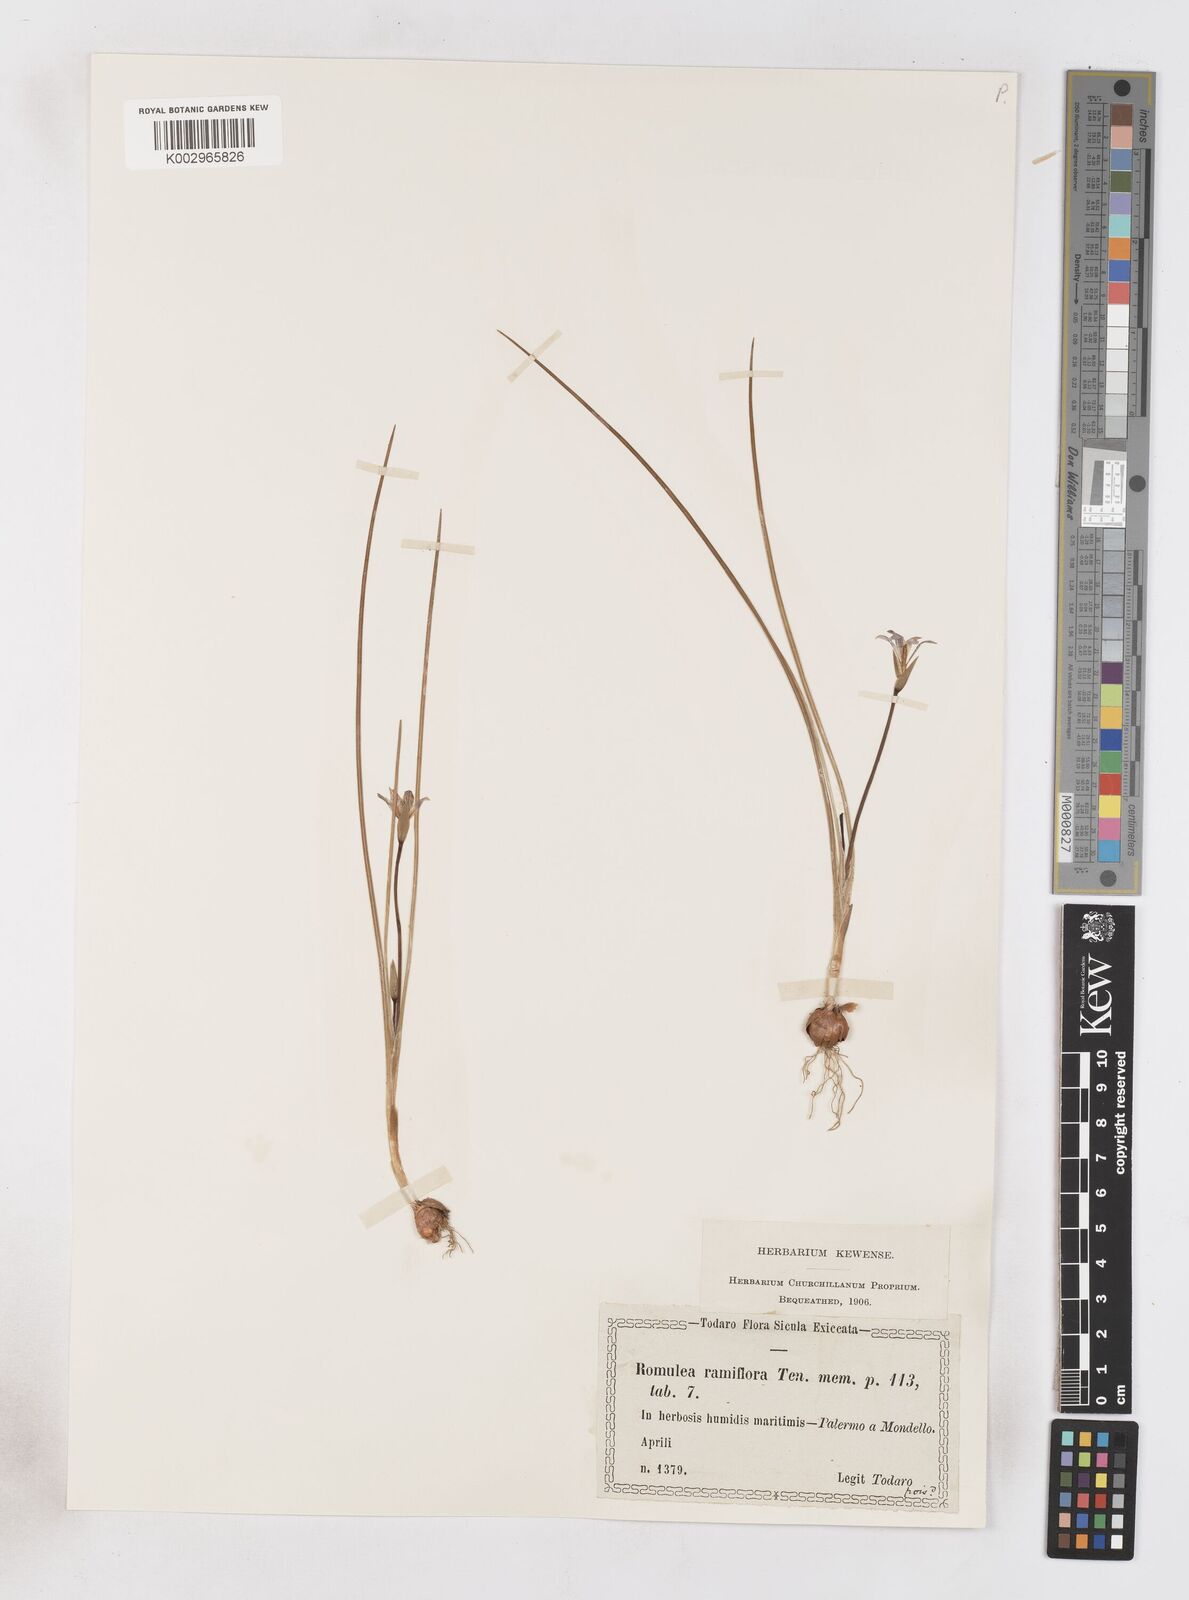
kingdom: Plantae
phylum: Tracheophyta
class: Liliopsida
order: Asparagales
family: Iridaceae
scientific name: Iridaceae
